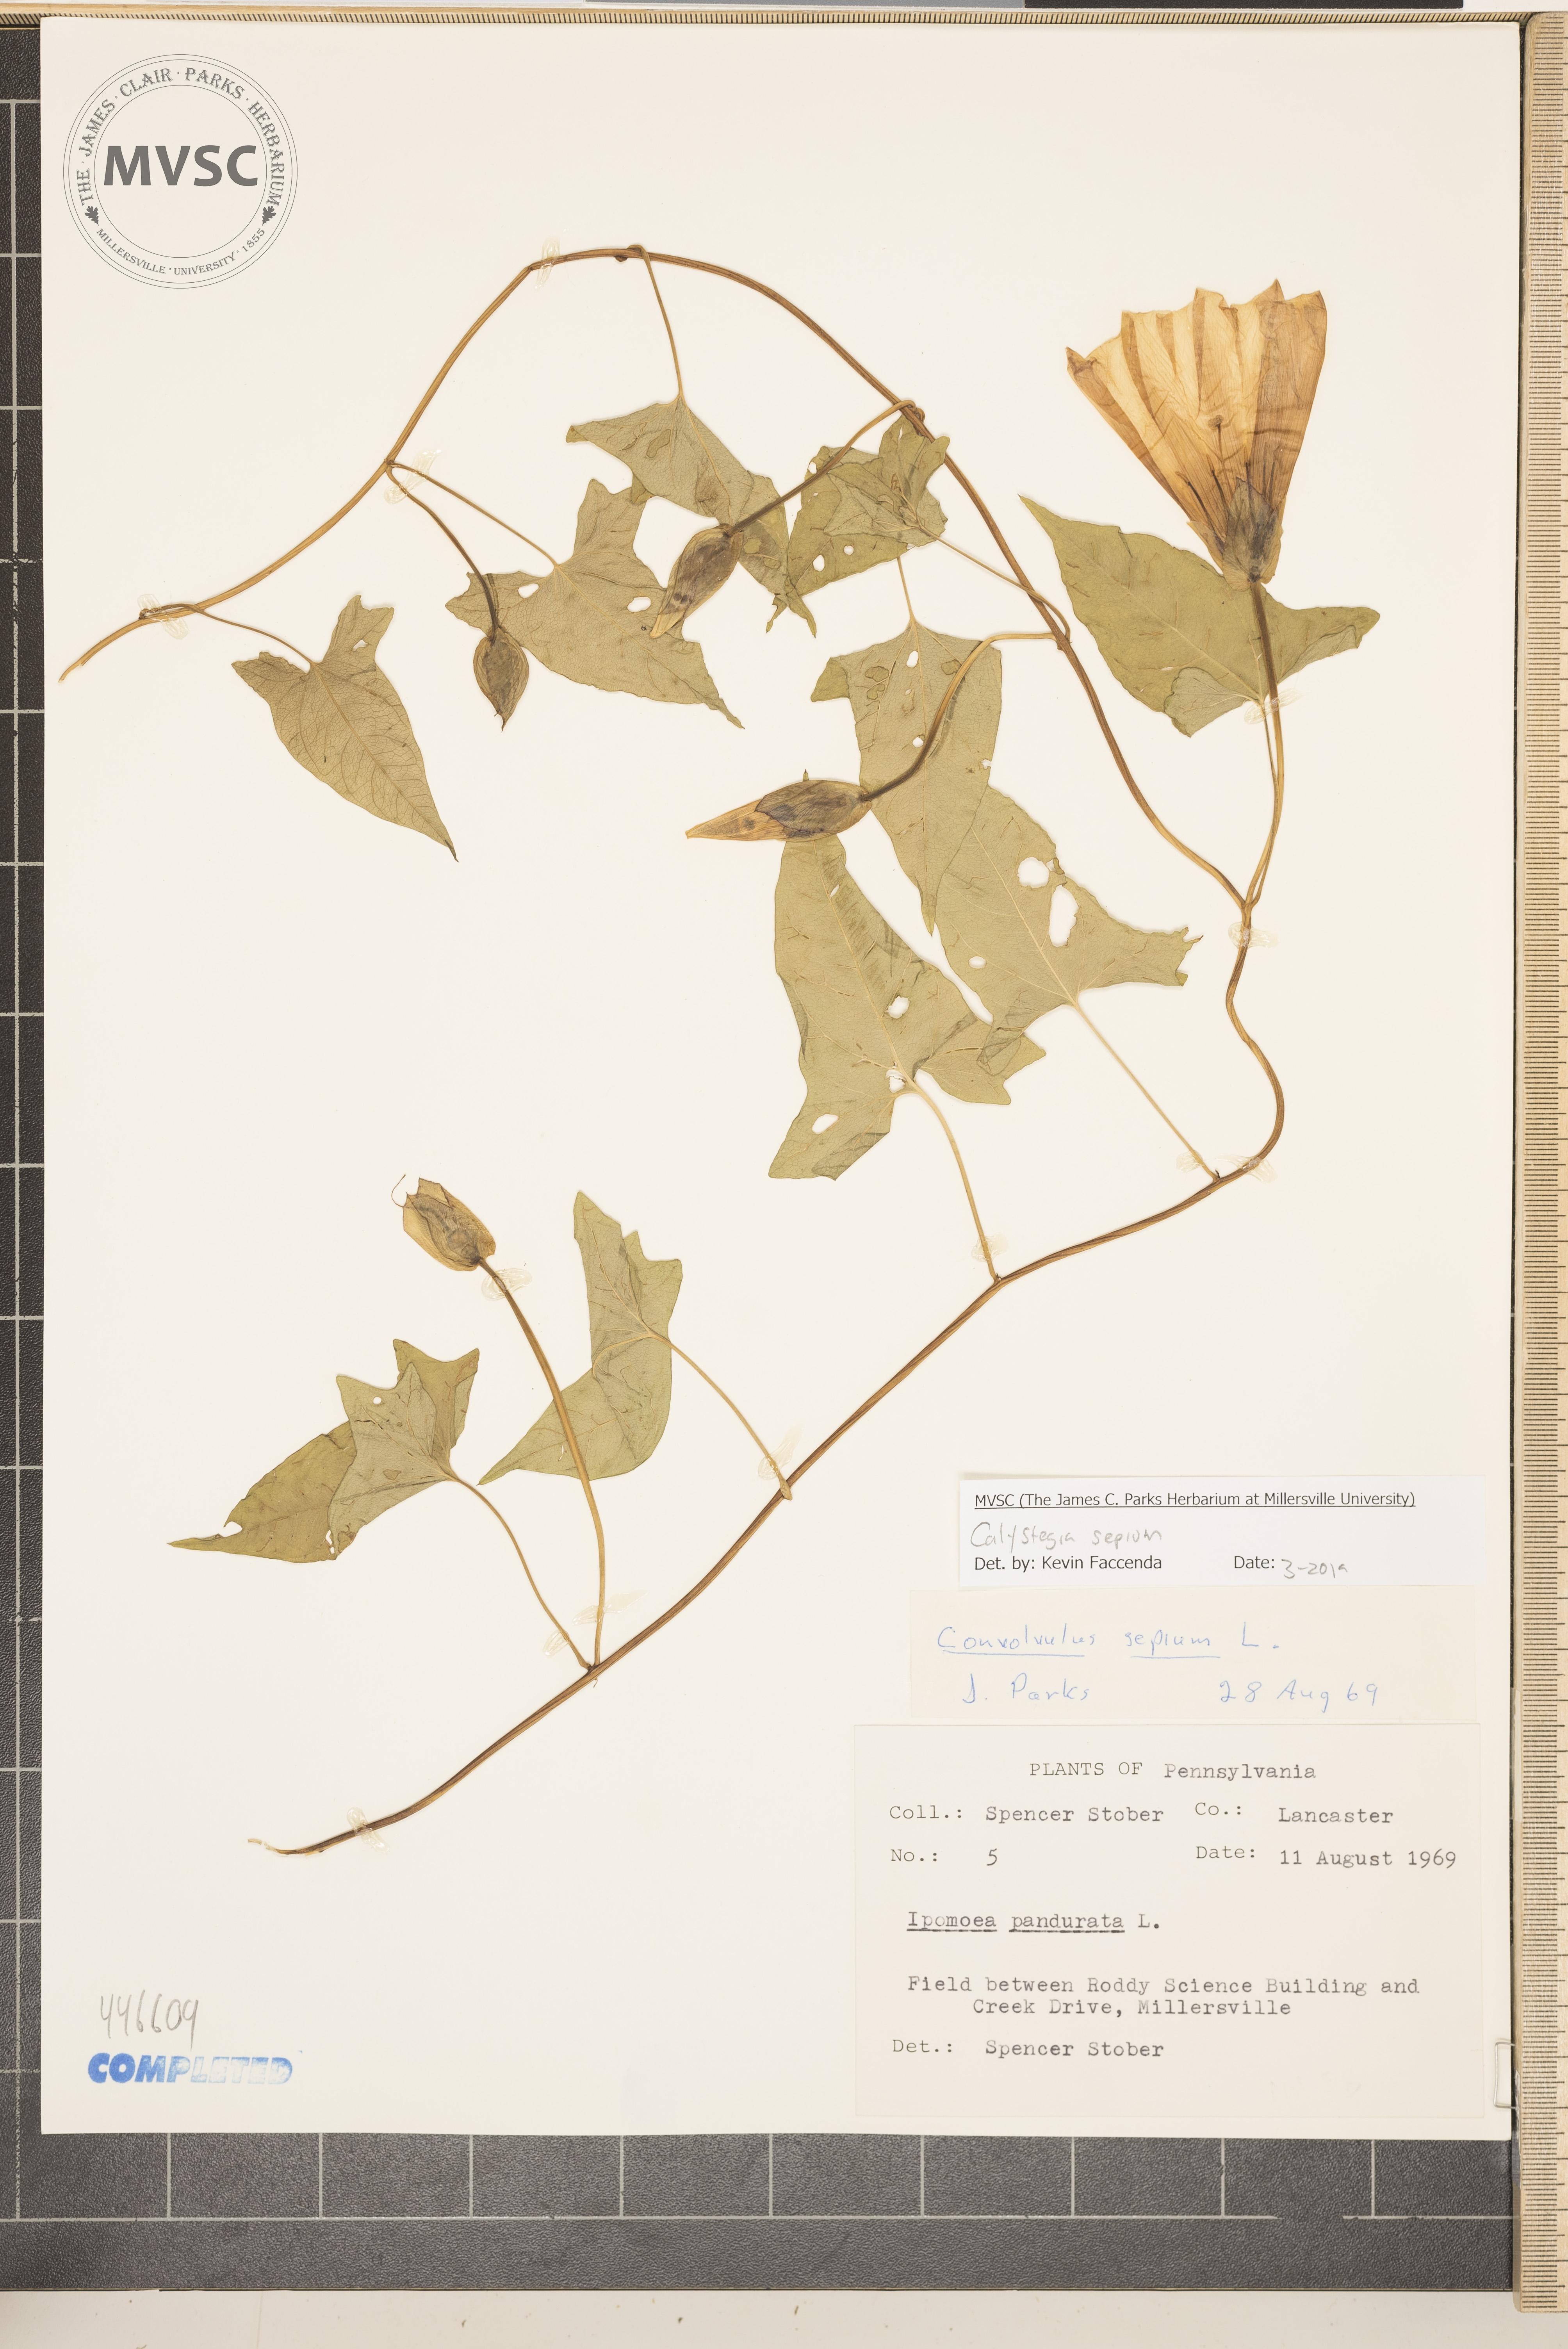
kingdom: Plantae
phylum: Tracheophyta
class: Magnoliopsida
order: Solanales
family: Convolvulaceae
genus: Calystegia
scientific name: Calystegia sepium
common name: Bindweed
